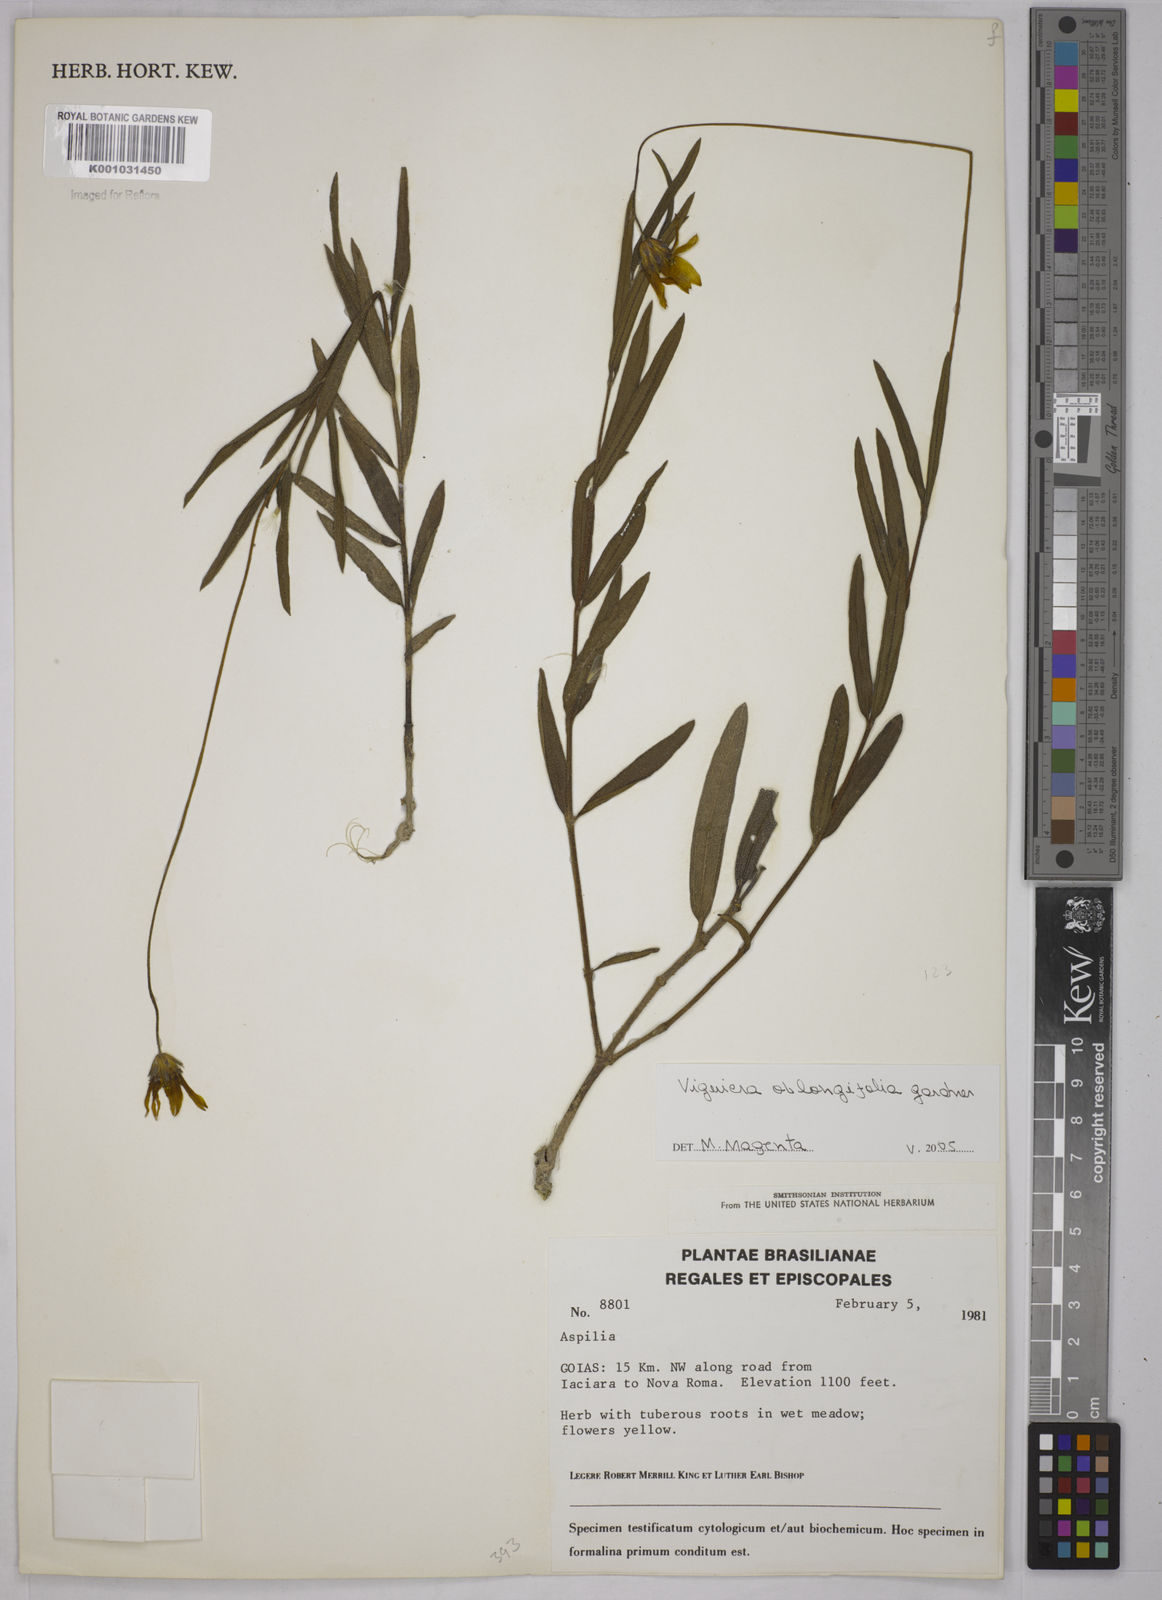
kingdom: Plantae
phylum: Tracheophyta
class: Magnoliopsida
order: Asterales
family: Asteraceae
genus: Aldama
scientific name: Aldama oblongifolia
